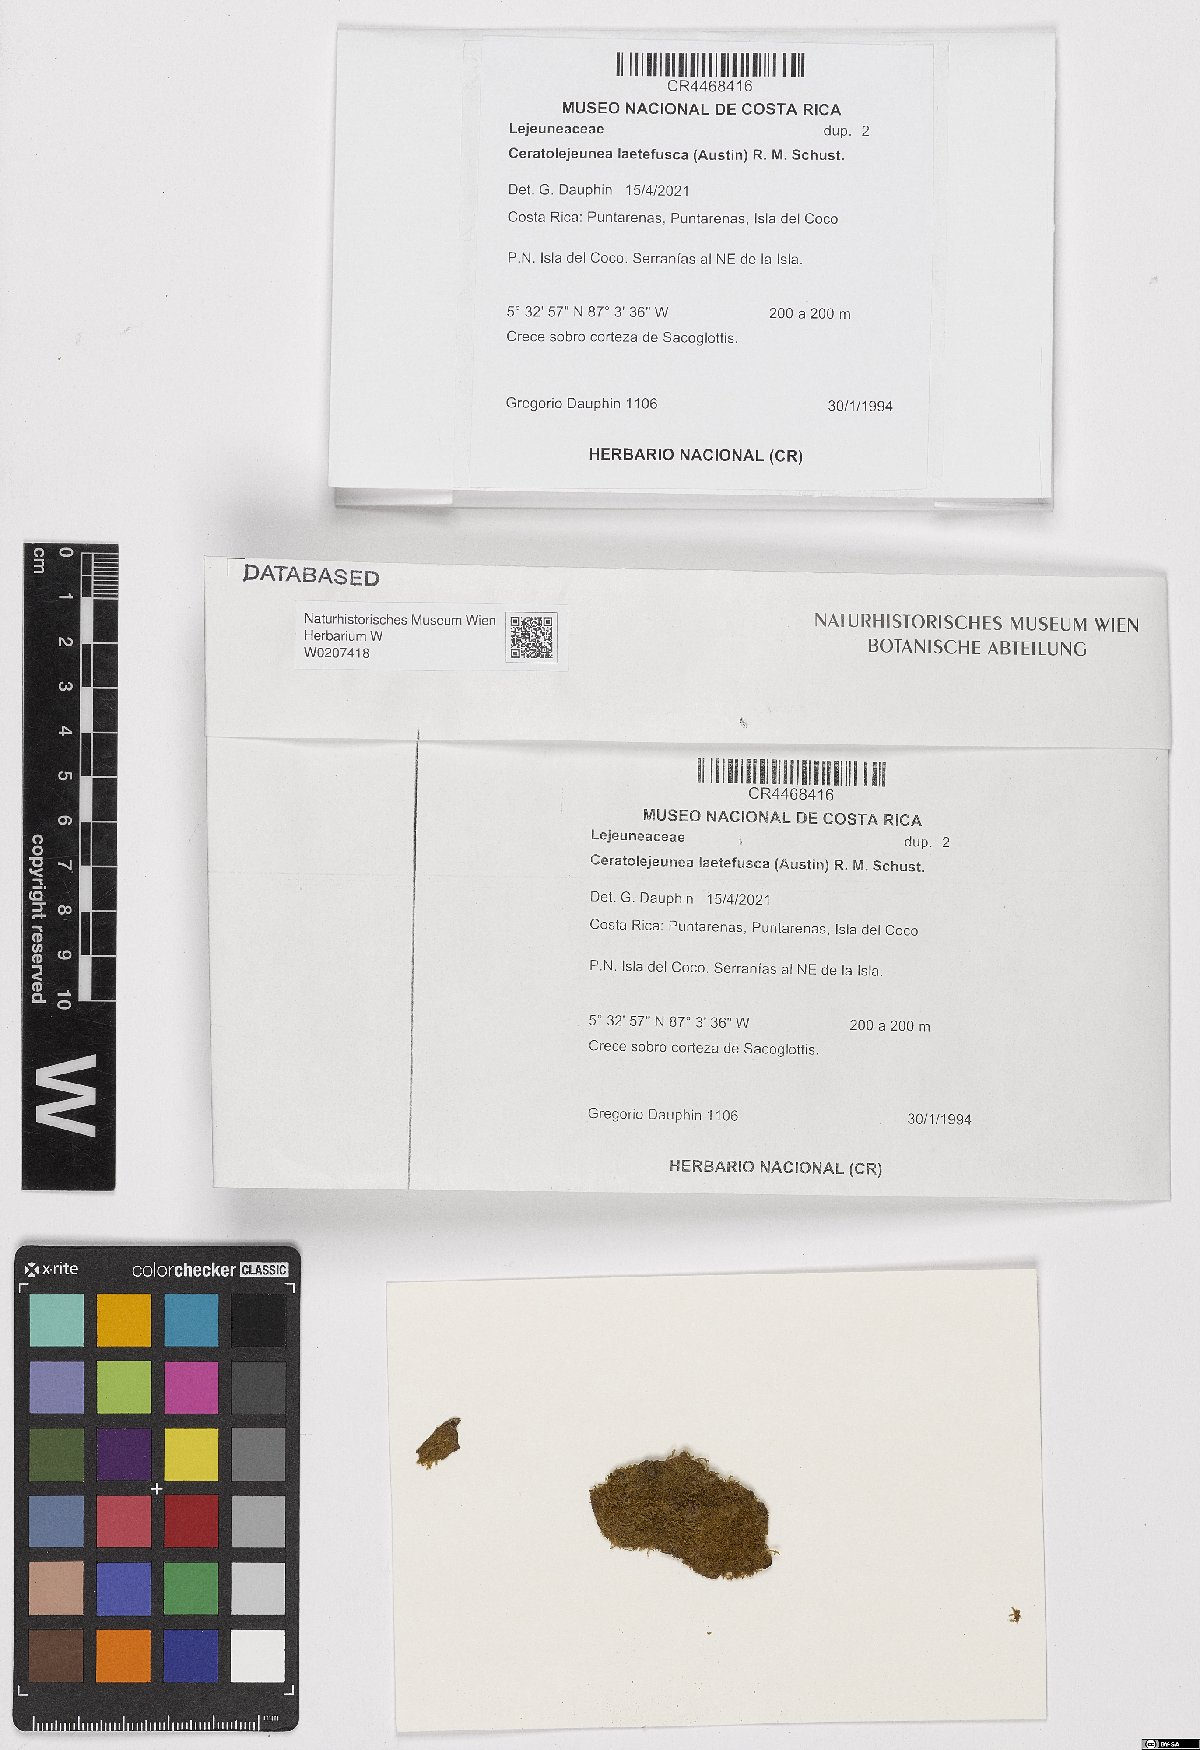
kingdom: Plantae
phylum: Marchantiophyta
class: Jungermanniopsida
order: Porellales
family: Lejeuneaceae
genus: Ceratolejeunea
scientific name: Ceratolejeunea laetefusca
